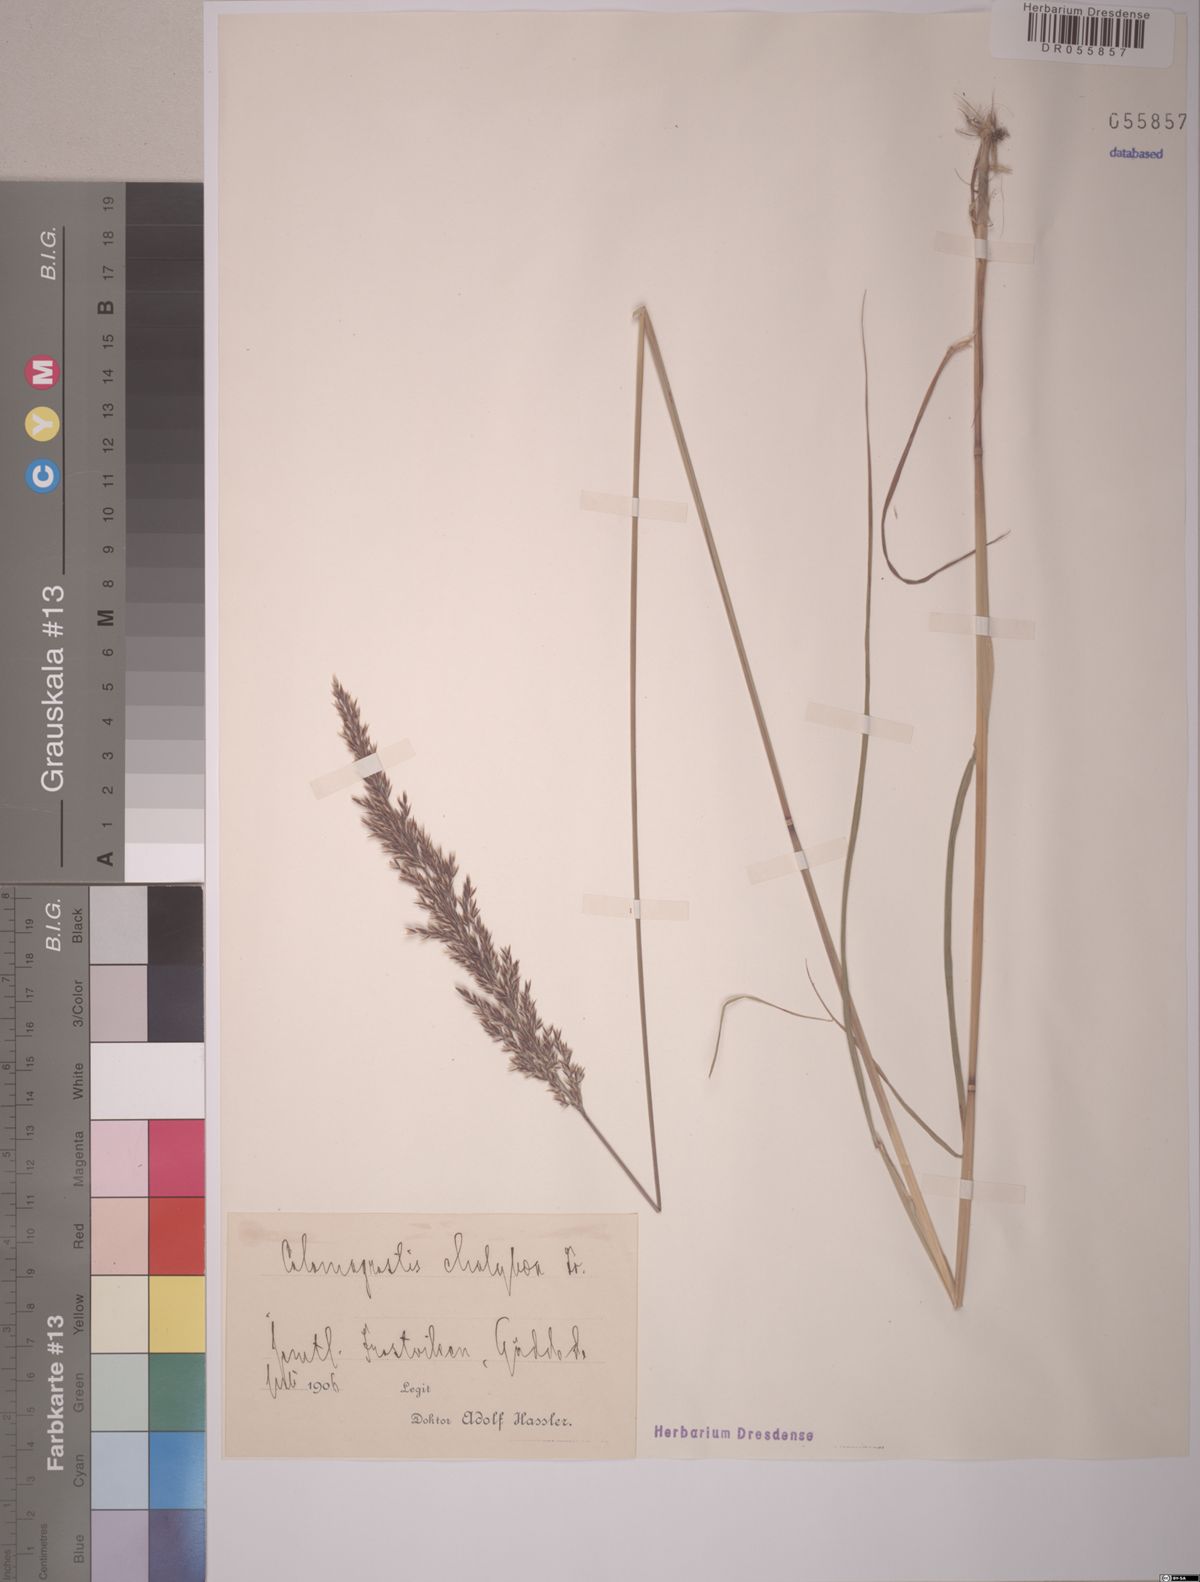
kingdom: Plantae
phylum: Tracheophyta
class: Liliopsida
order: Poales
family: Poaceae
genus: Calamagrostis
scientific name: Calamagrostis chalybaea
